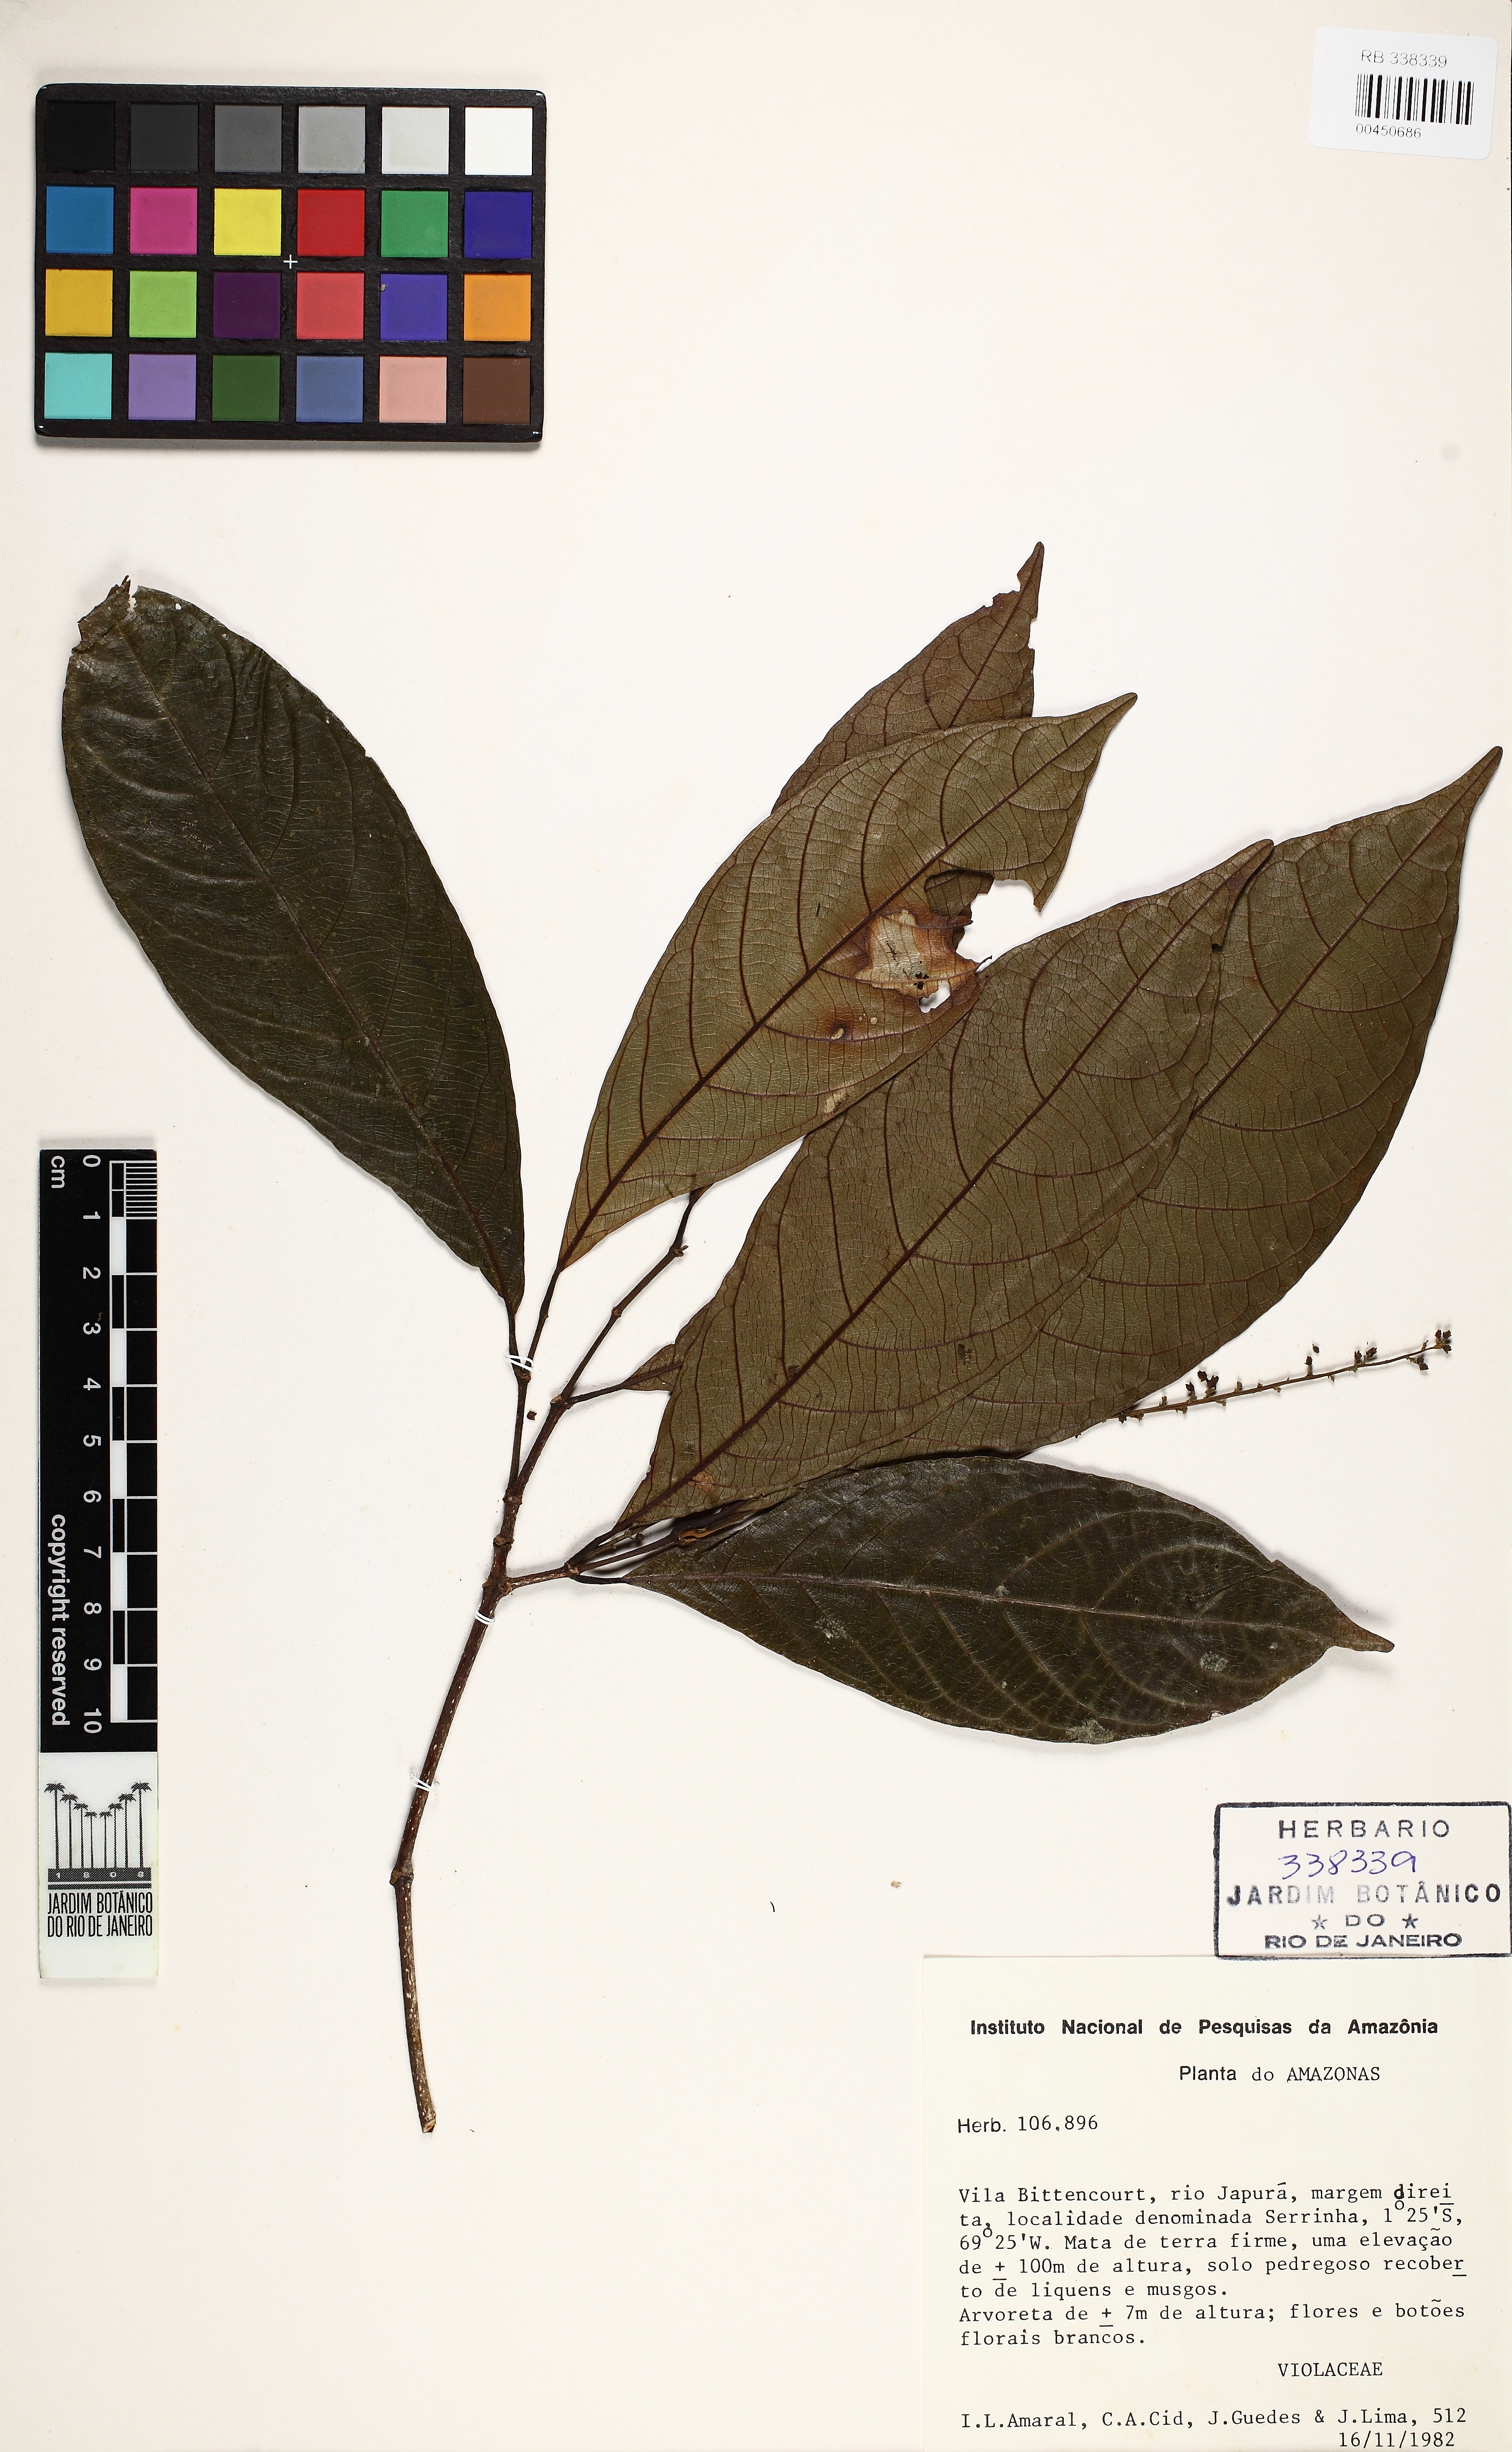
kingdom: Plantae
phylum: Tracheophyta
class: Magnoliopsida
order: Malpighiales
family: Violaceae
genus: Rinorea
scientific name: Rinorea racemosa
